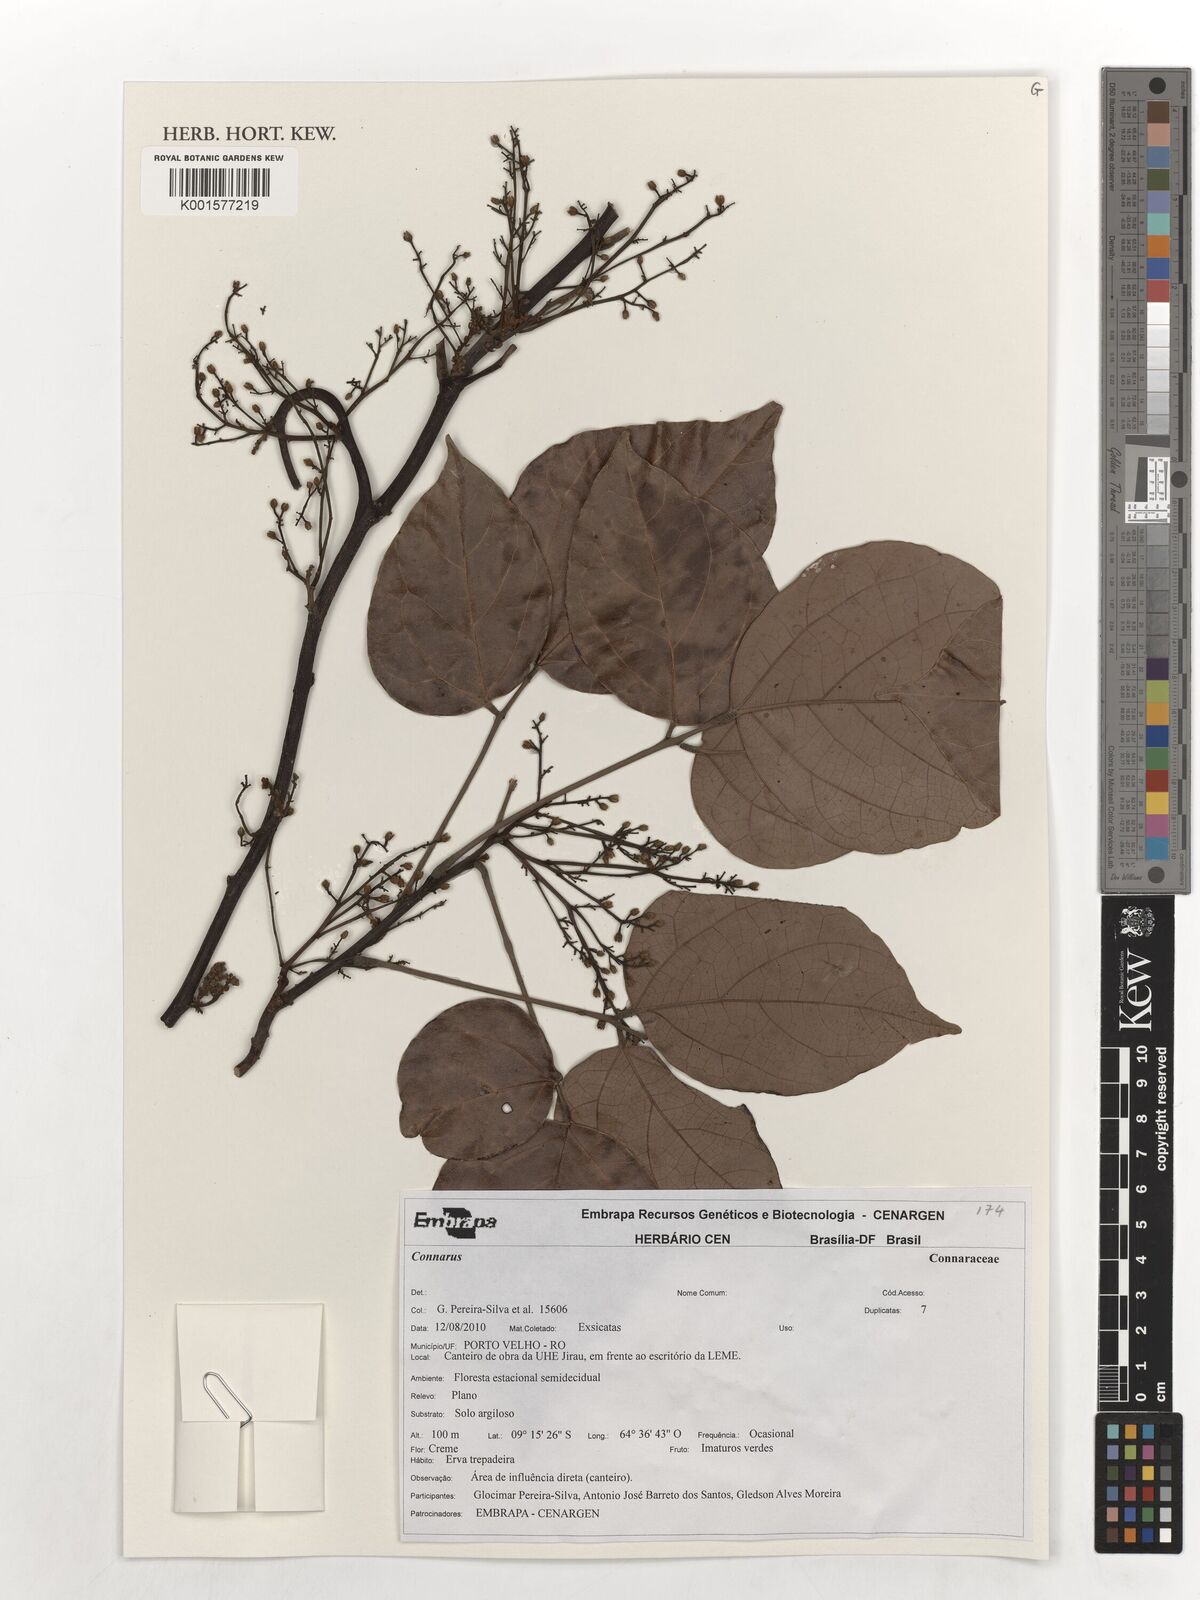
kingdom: Plantae
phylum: Tracheophyta
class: Magnoliopsida
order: Oxalidales
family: Connaraceae
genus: Connarus
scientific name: Connarus
